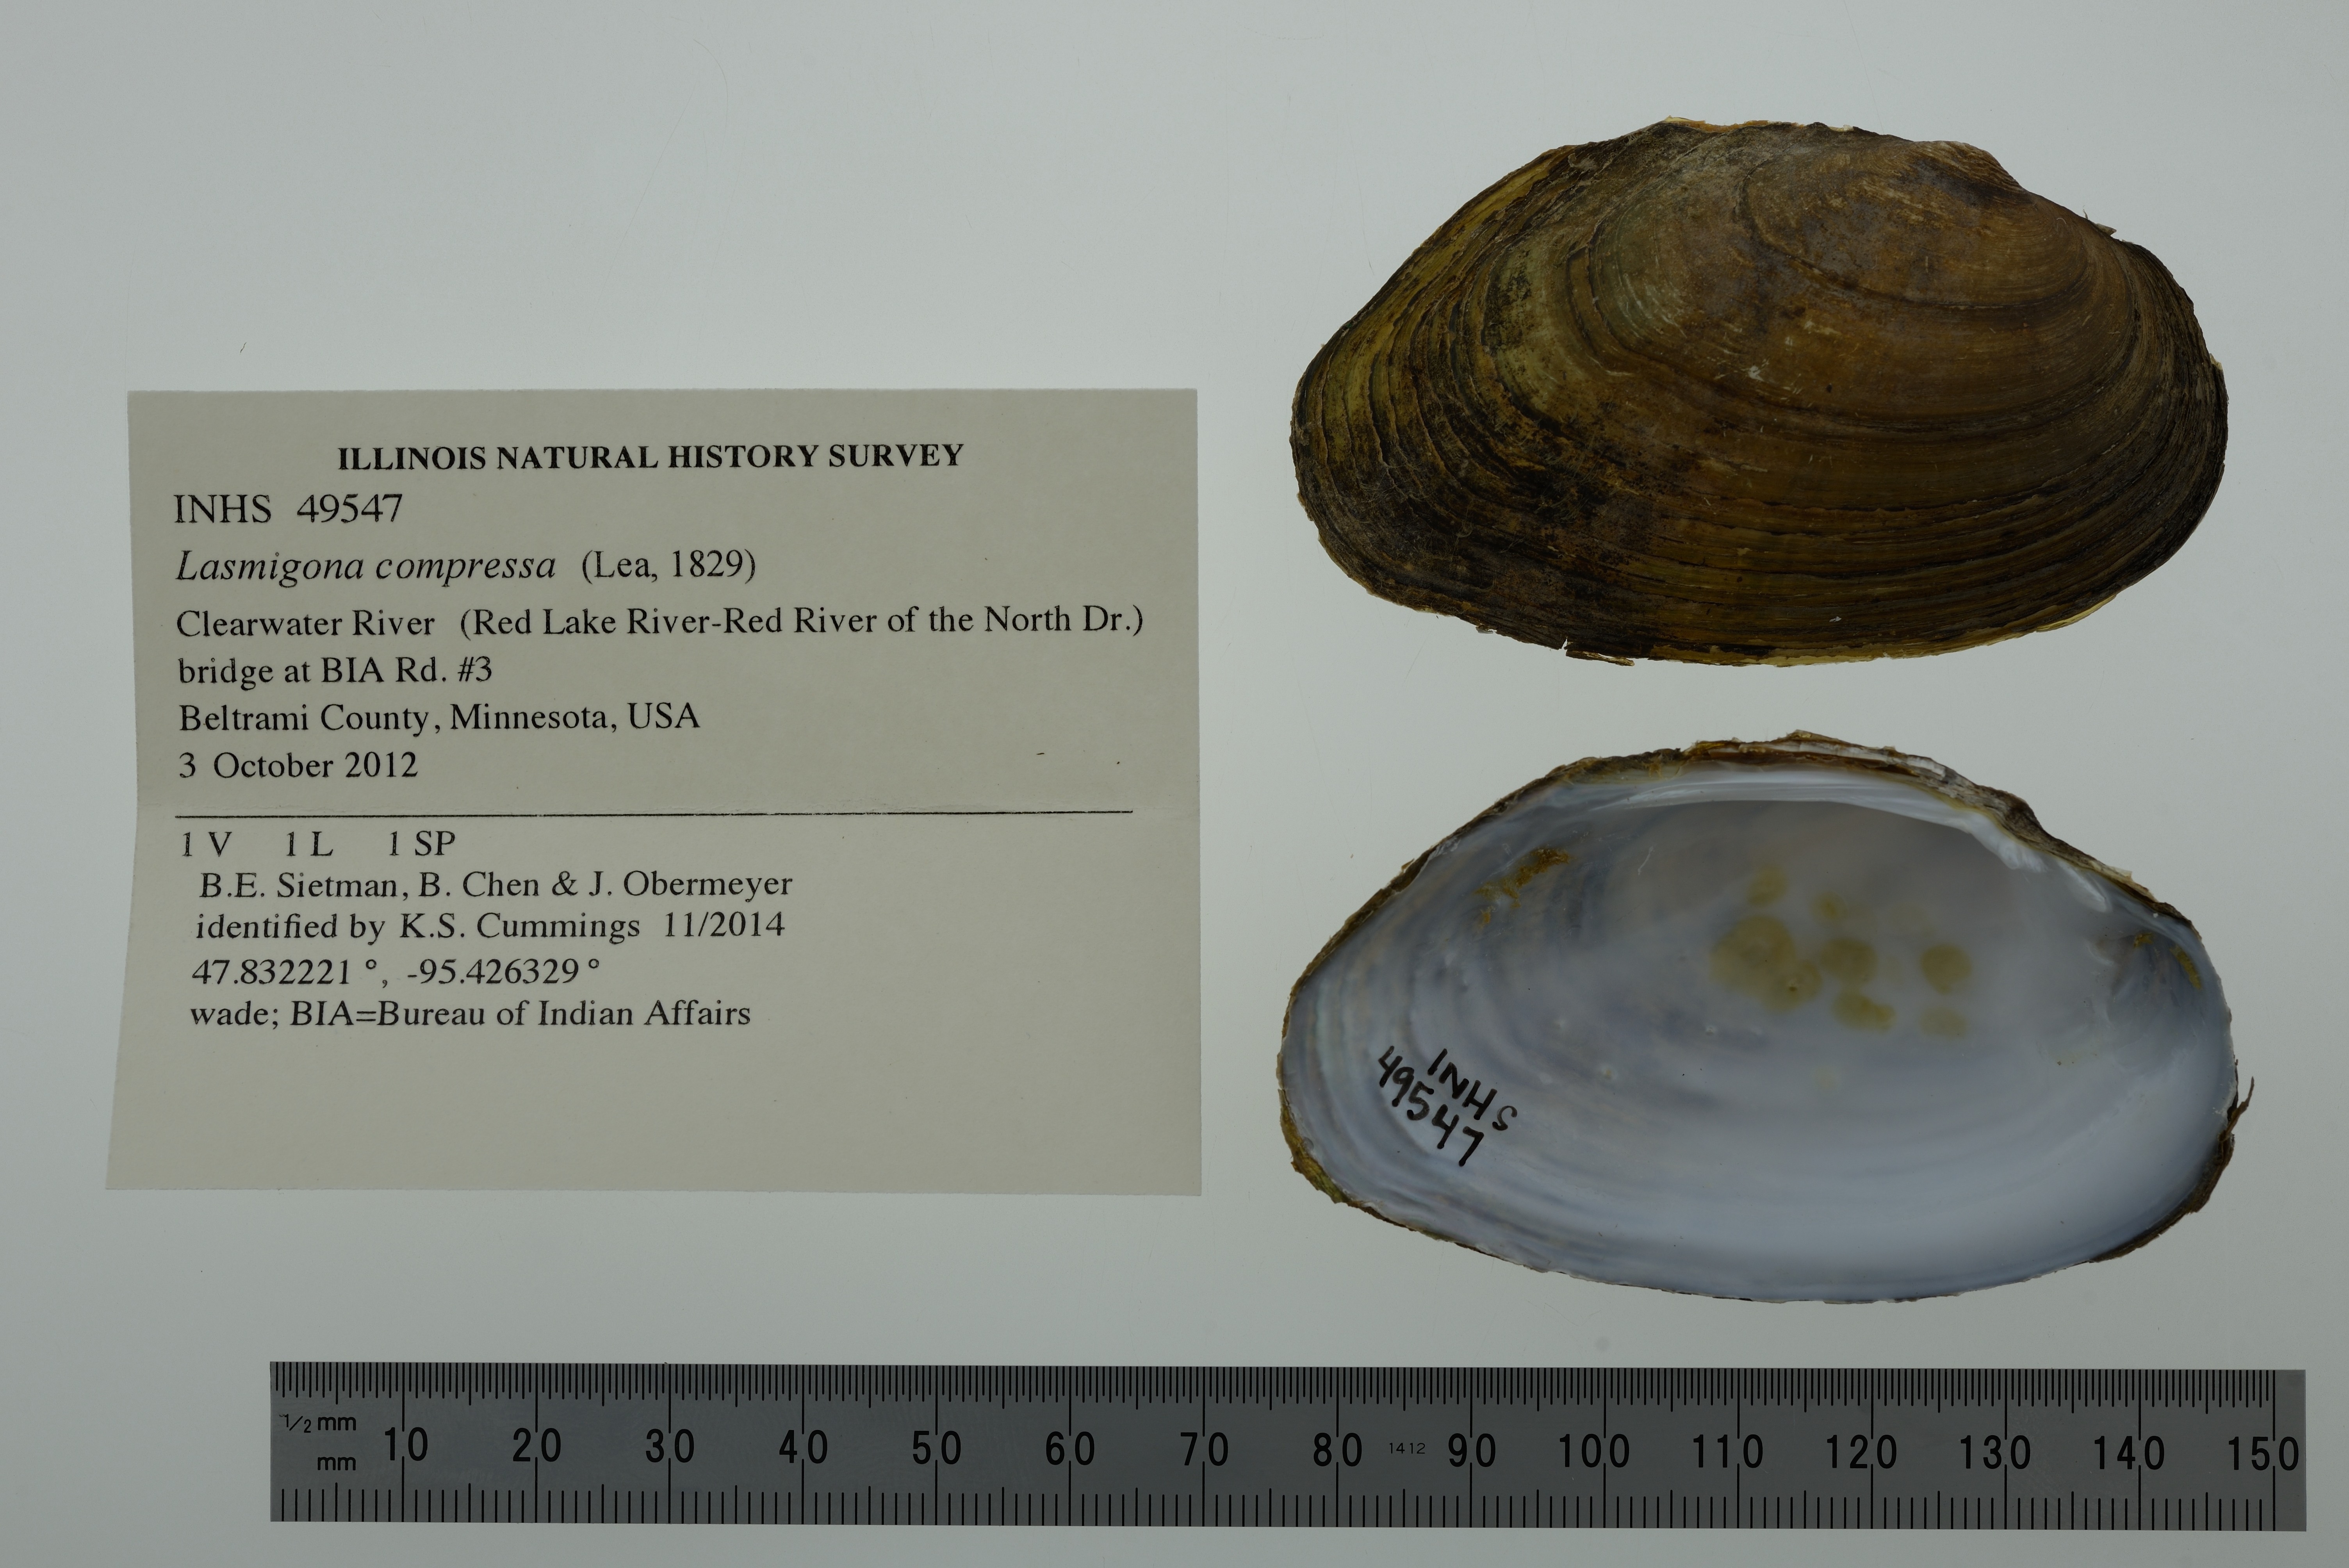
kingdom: Animalia
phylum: Mollusca
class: Bivalvia
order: Unionida
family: Unionidae
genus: Lasmigona
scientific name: Lasmigona compressa
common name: Creek heelsplitter
